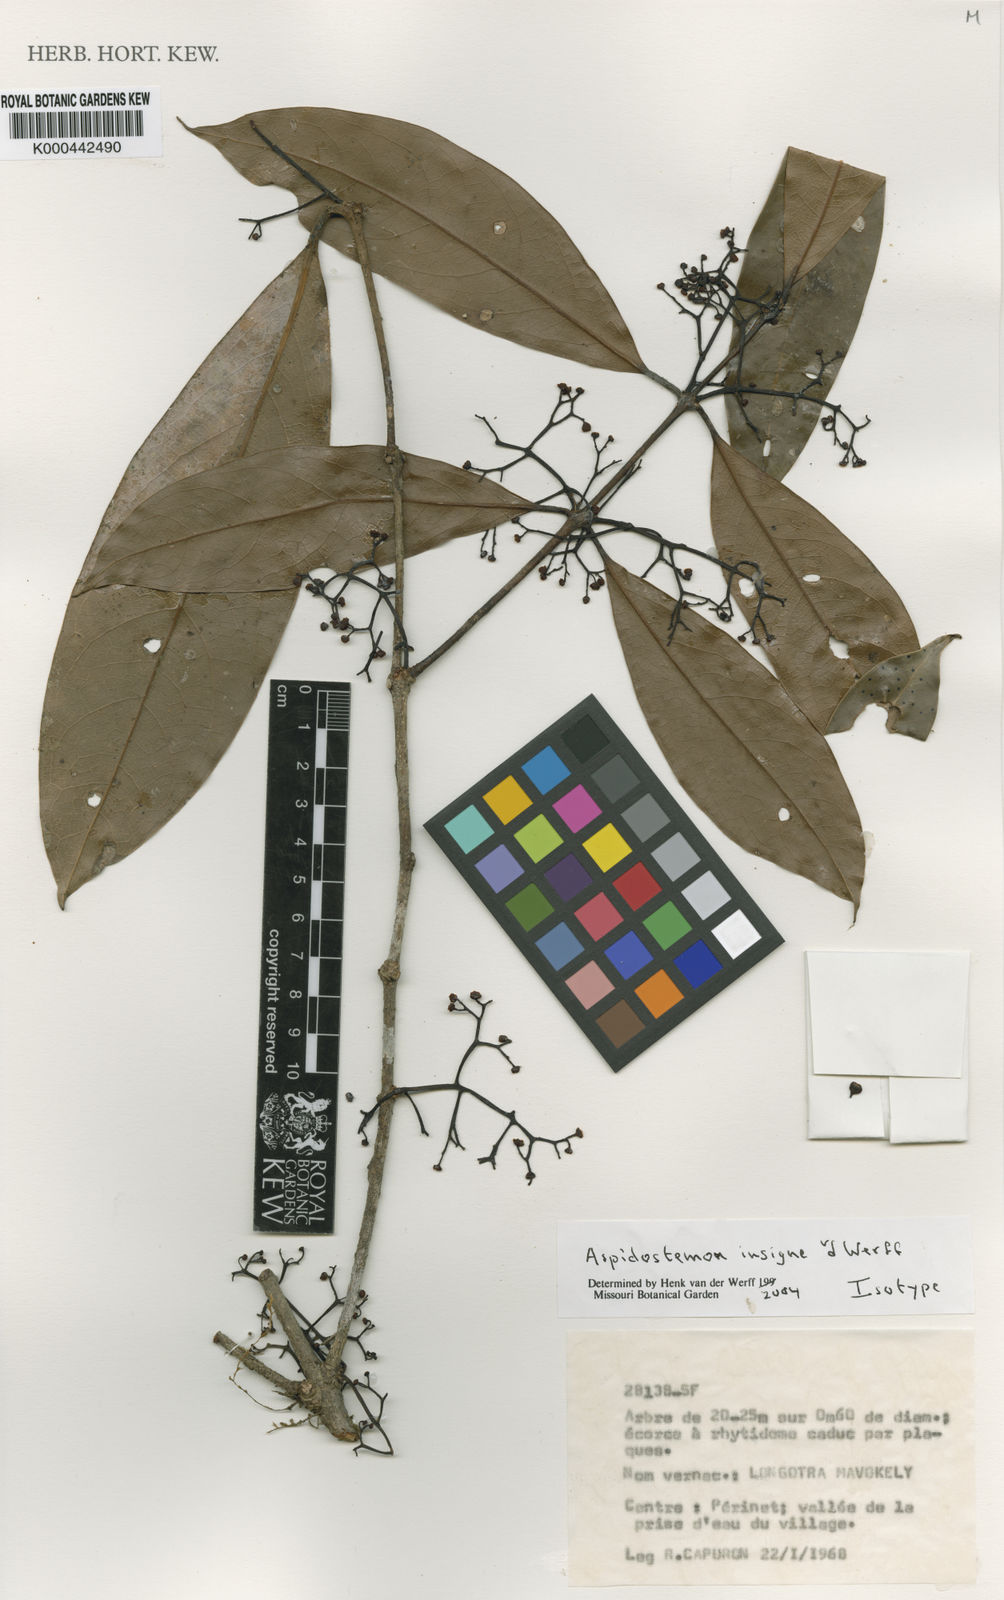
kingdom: Plantae
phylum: Tracheophyta
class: Magnoliopsida
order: Laurales
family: Lauraceae
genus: Aspidostemon
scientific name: Aspidostemon
